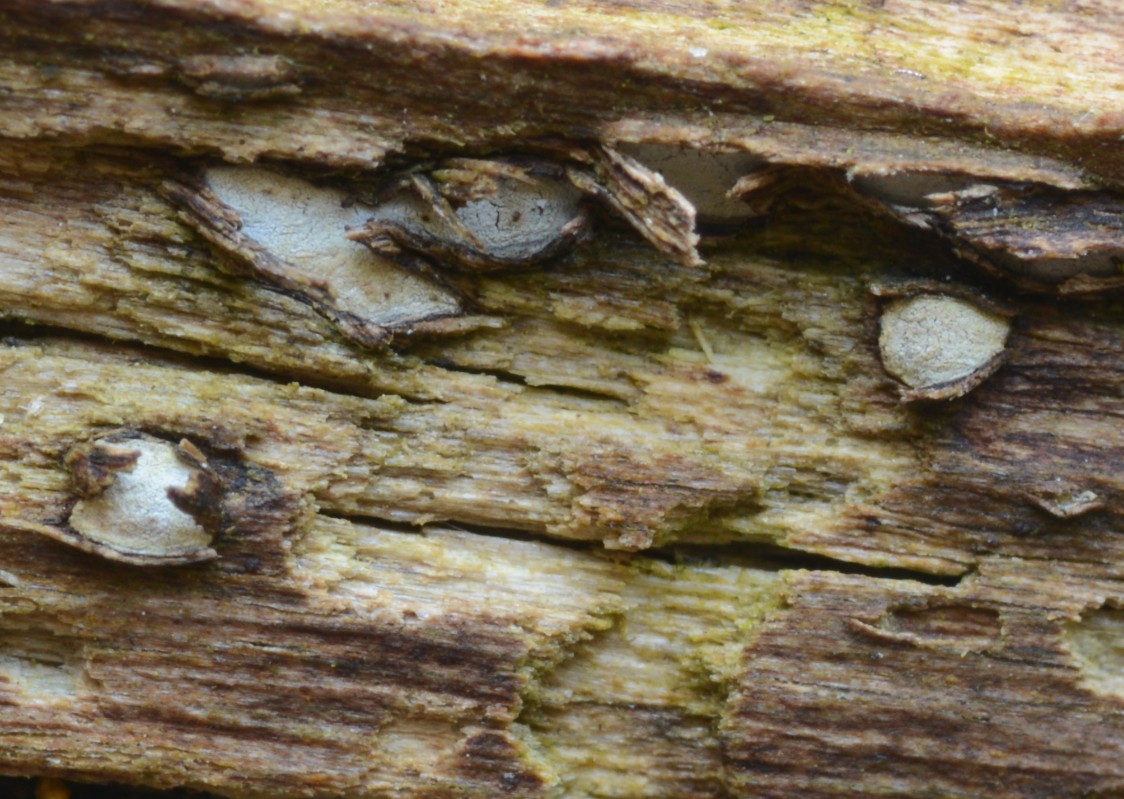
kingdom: Fungi
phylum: Ascomycota
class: Leotiomycetes
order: Chaetomellales
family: Marthamycetaceae
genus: Propolis
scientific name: Propolis farinosa
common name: almindelig vedsprængerskive
